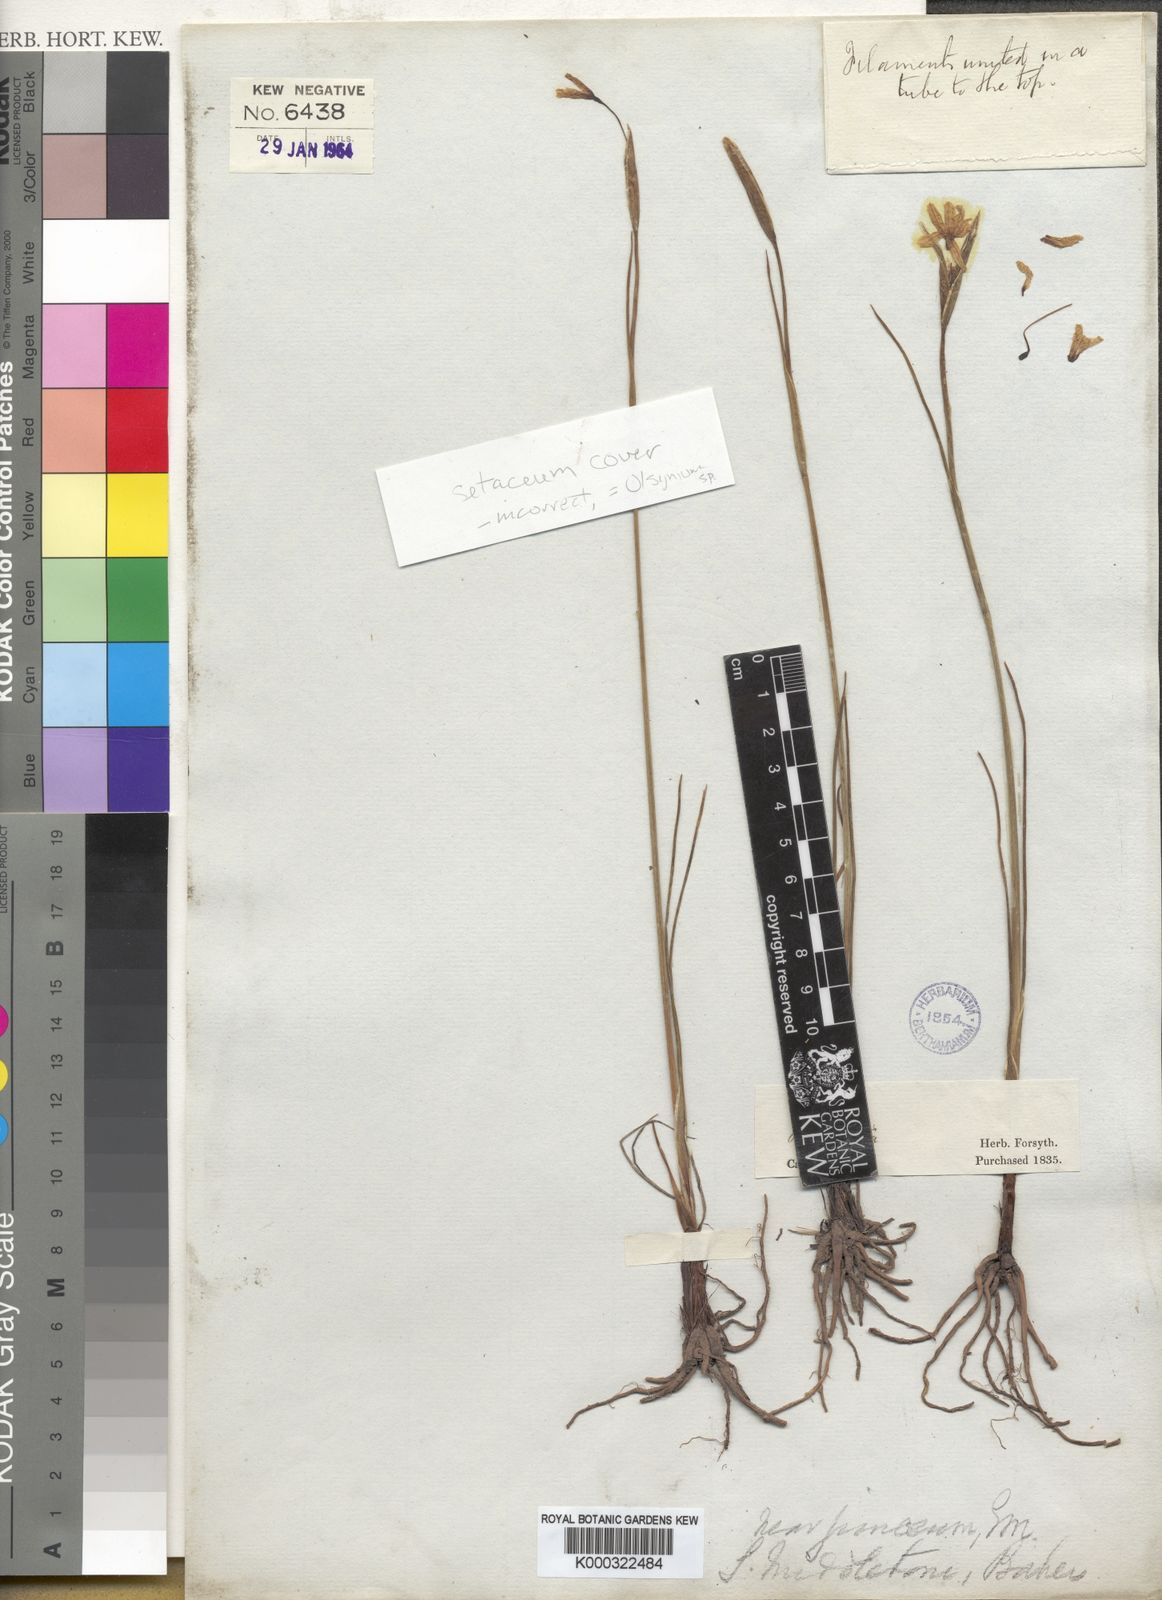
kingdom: Plantae
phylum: Tracheophyta
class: Liliopsida
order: Asparagales
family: Iridaceae
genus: Olsynium
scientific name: Olsynium junceum
